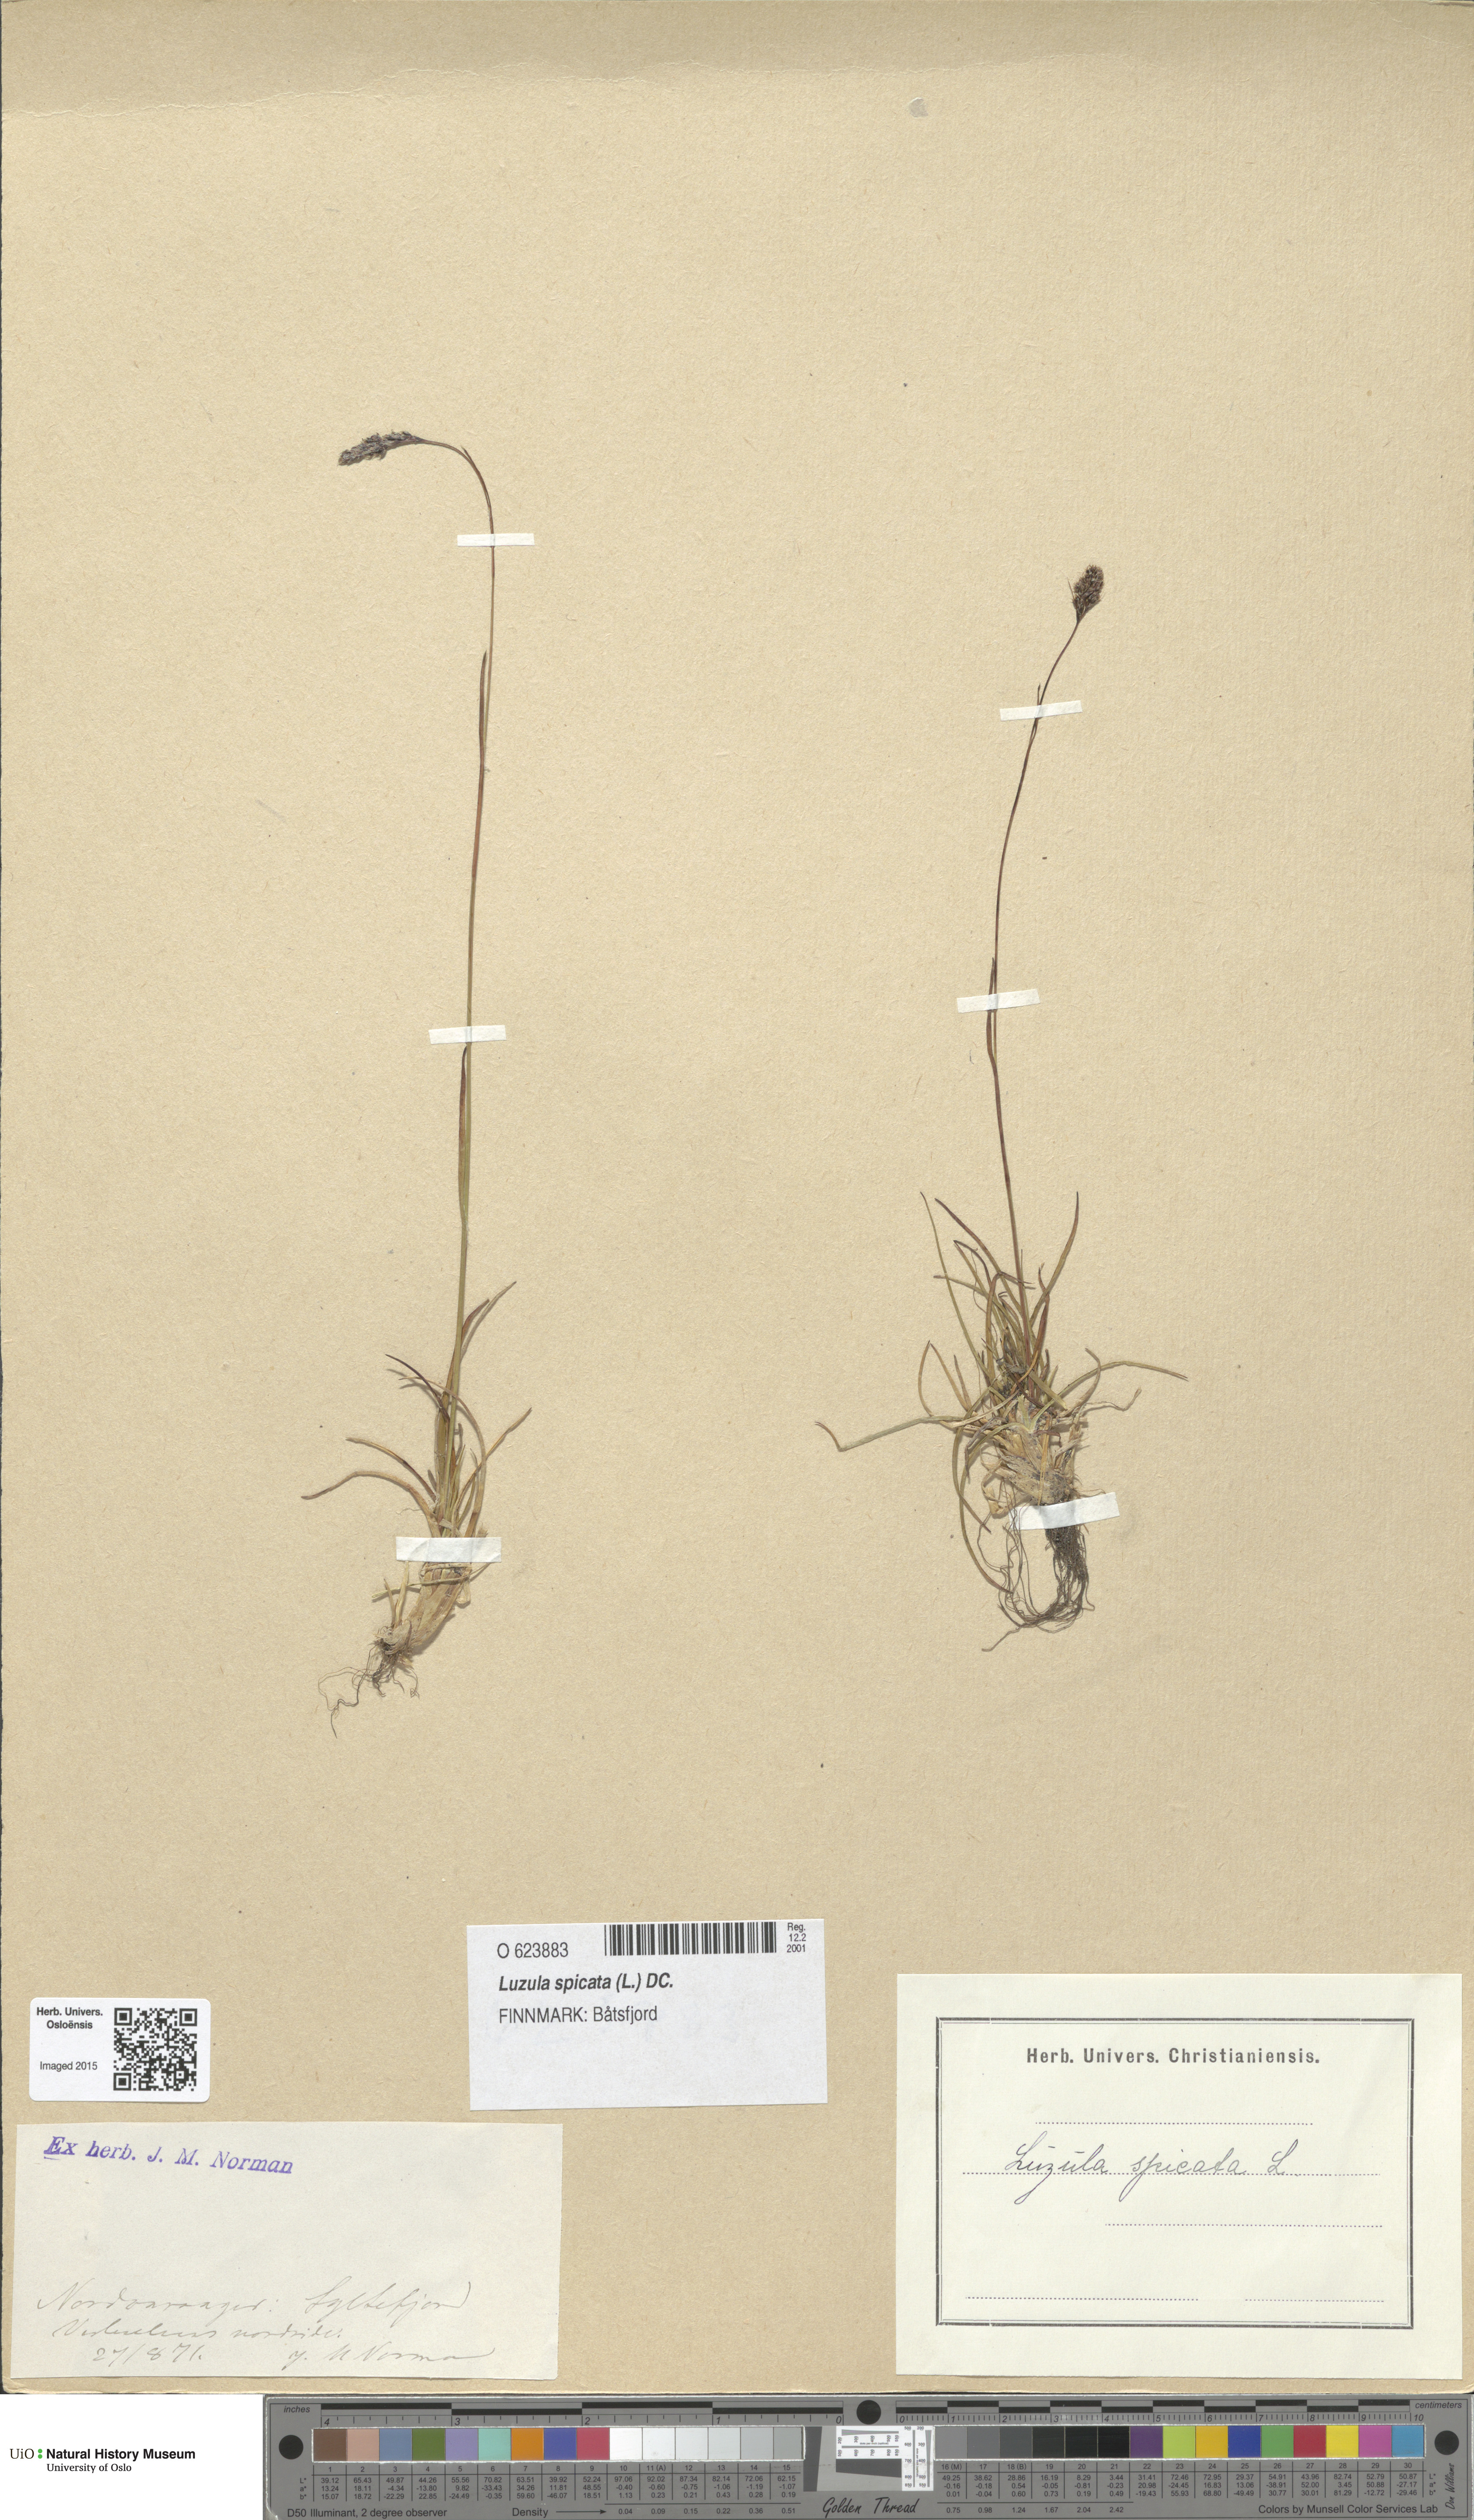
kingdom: Plantae
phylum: Tracheophyta
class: Liliopsida
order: Poales
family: Juncaceae
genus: Luzula
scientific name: Luzula spicata
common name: Spiked wood-rush
